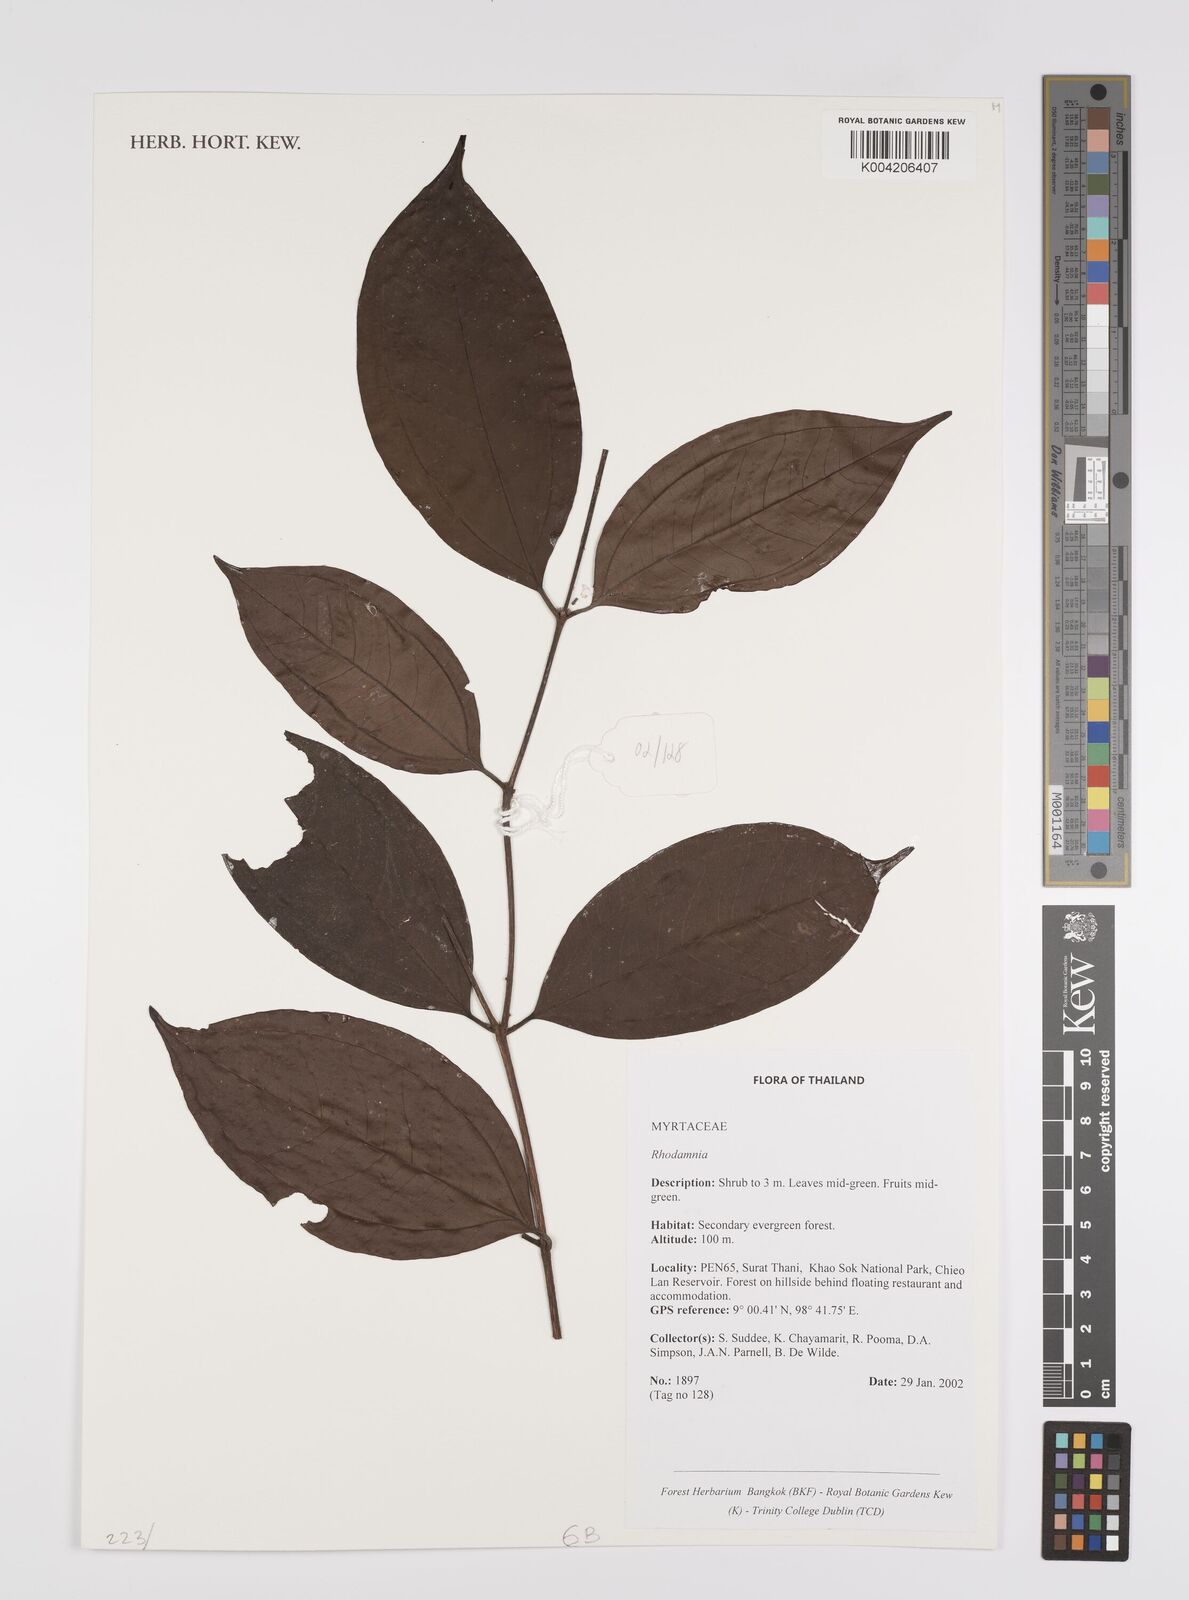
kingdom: Plantae
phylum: Tracheophyta
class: Magnoliopsida
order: Myrtales
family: Myrtaceae
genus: Rhodamnia
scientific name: Rhodamnia
